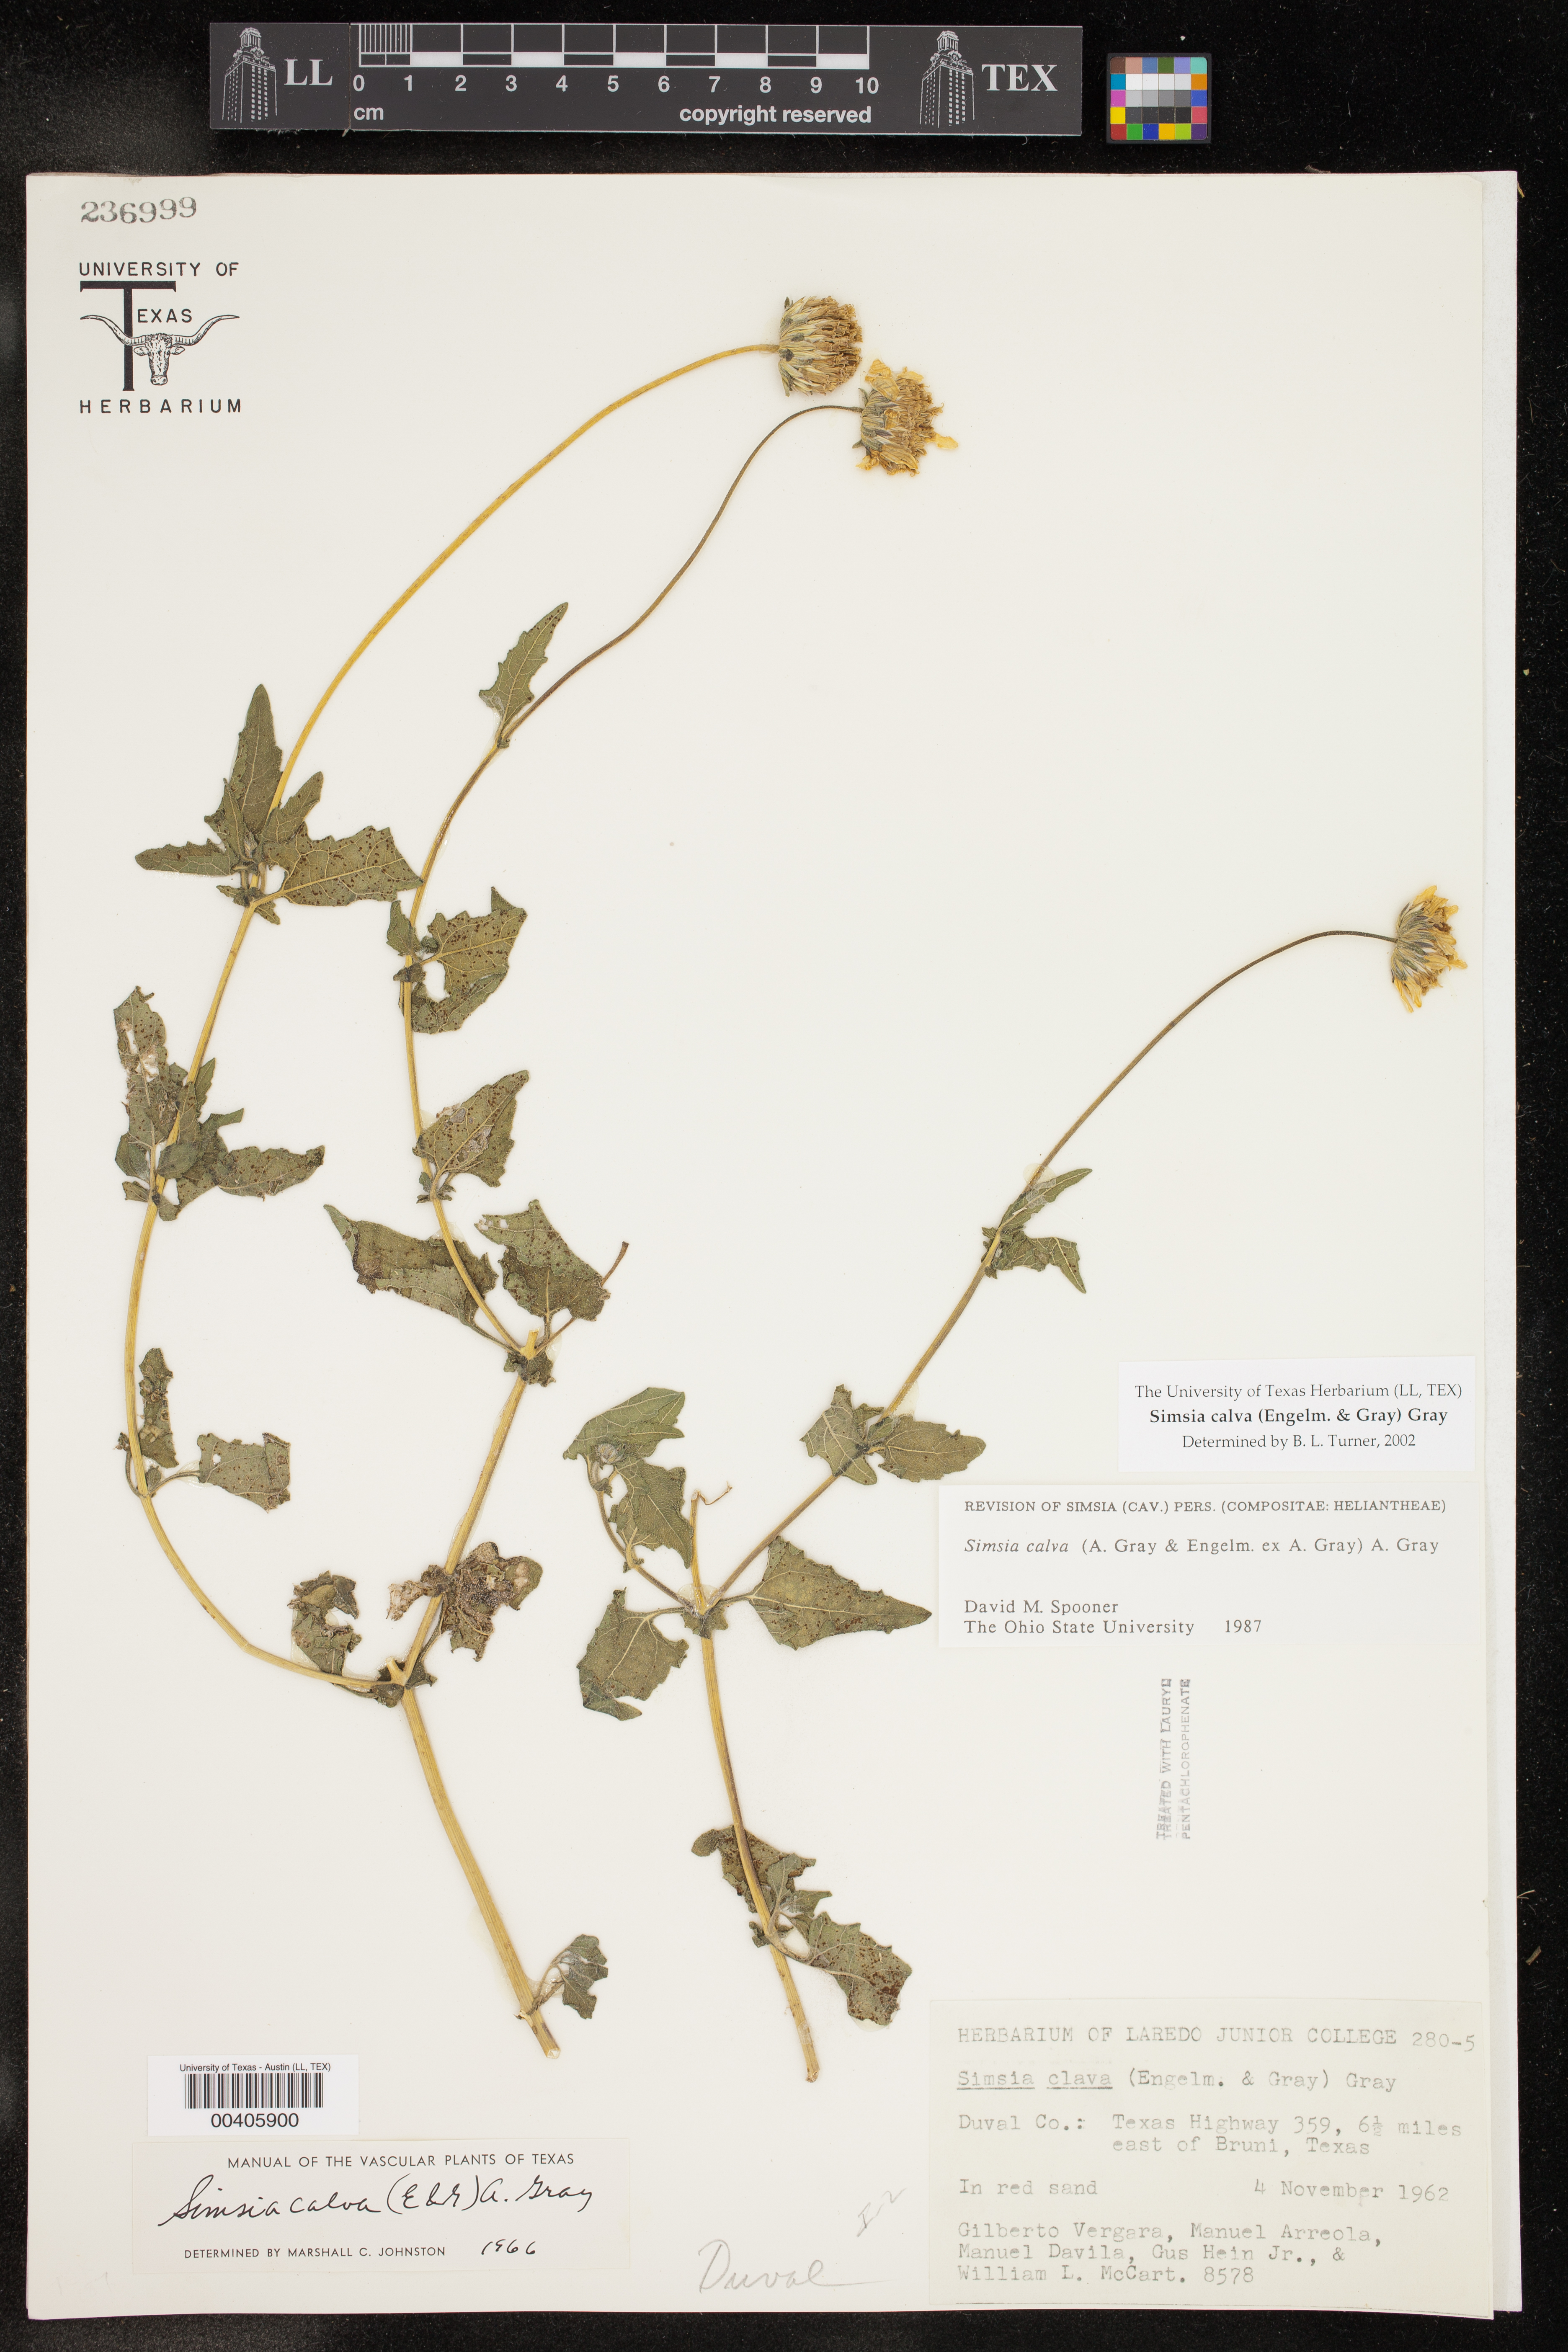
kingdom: Plantae
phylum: Tracheophyta
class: Magnoliopsida
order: Asterales
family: Asteraceae
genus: Simsia
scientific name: Simsia calva
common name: Awnless bush-sunflower
